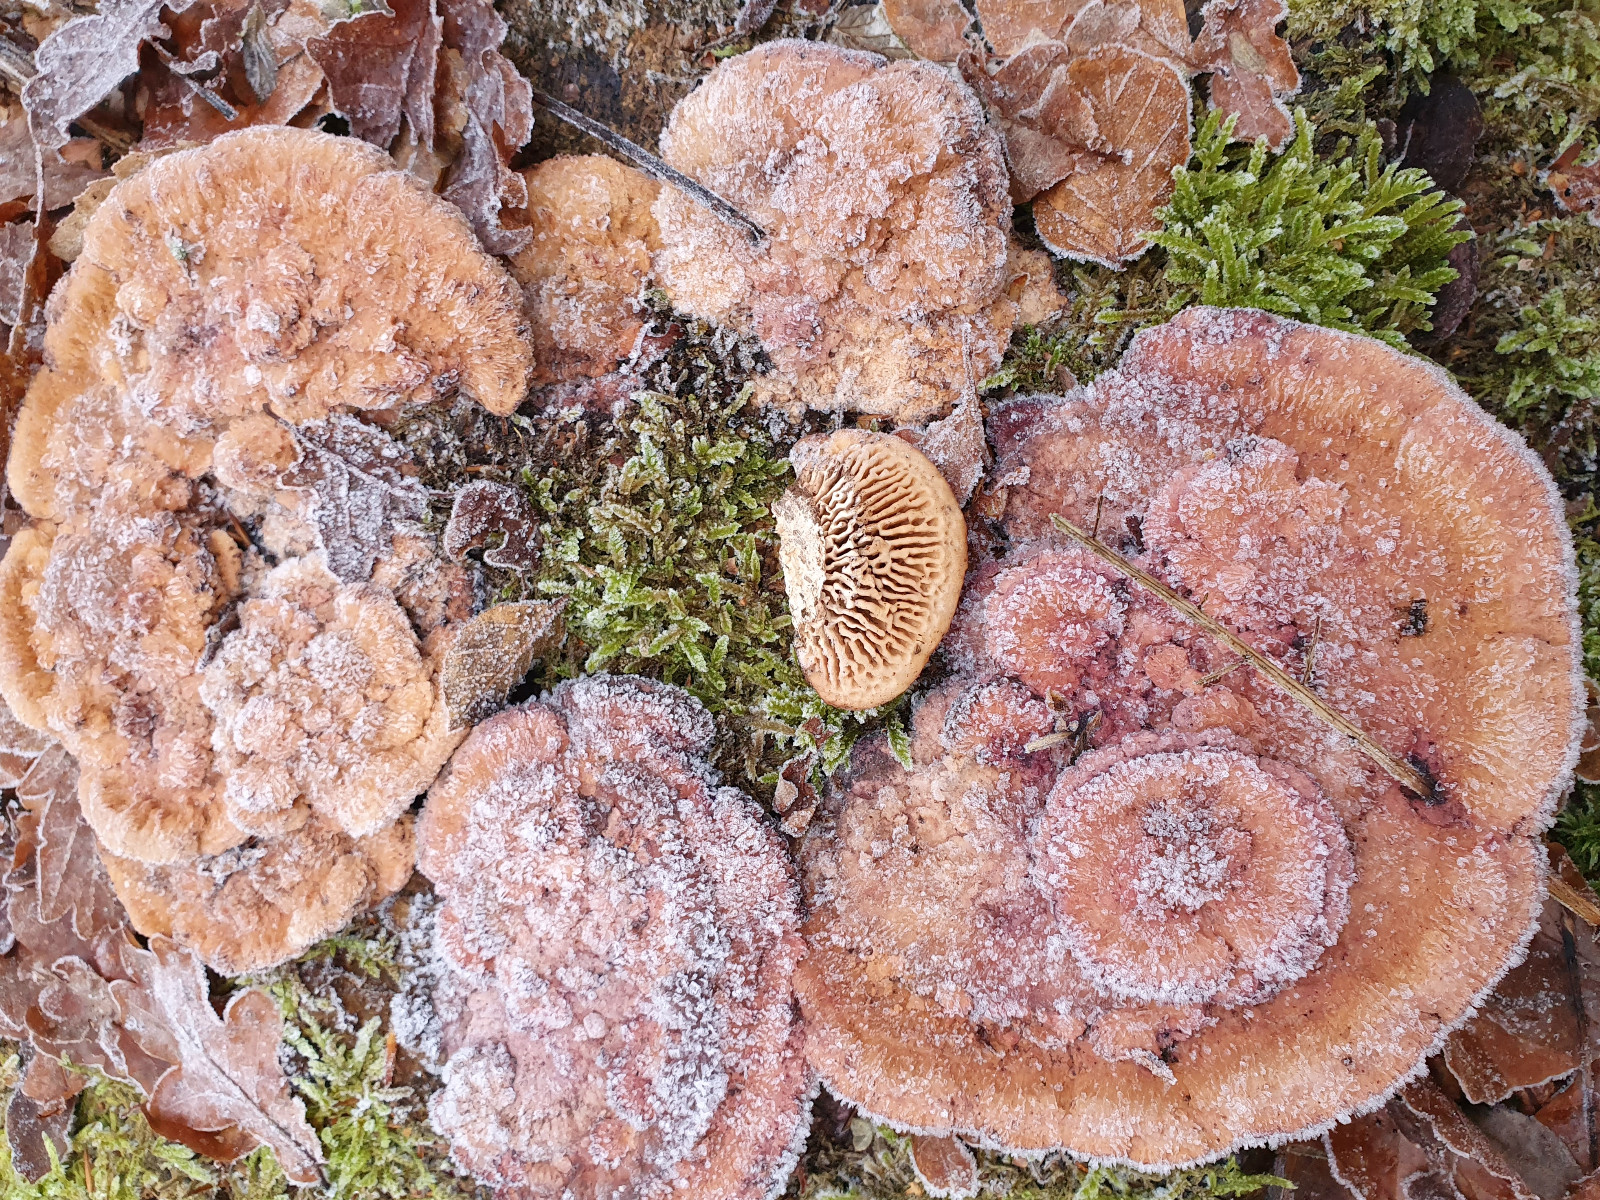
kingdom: Fungi
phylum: Basidiomycota
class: Agaricomycetes
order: Polyporales
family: Polyporaceae
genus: Daedaleopsis
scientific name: Daedaleopsis confragosa
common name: rødmende læderporesvamp
